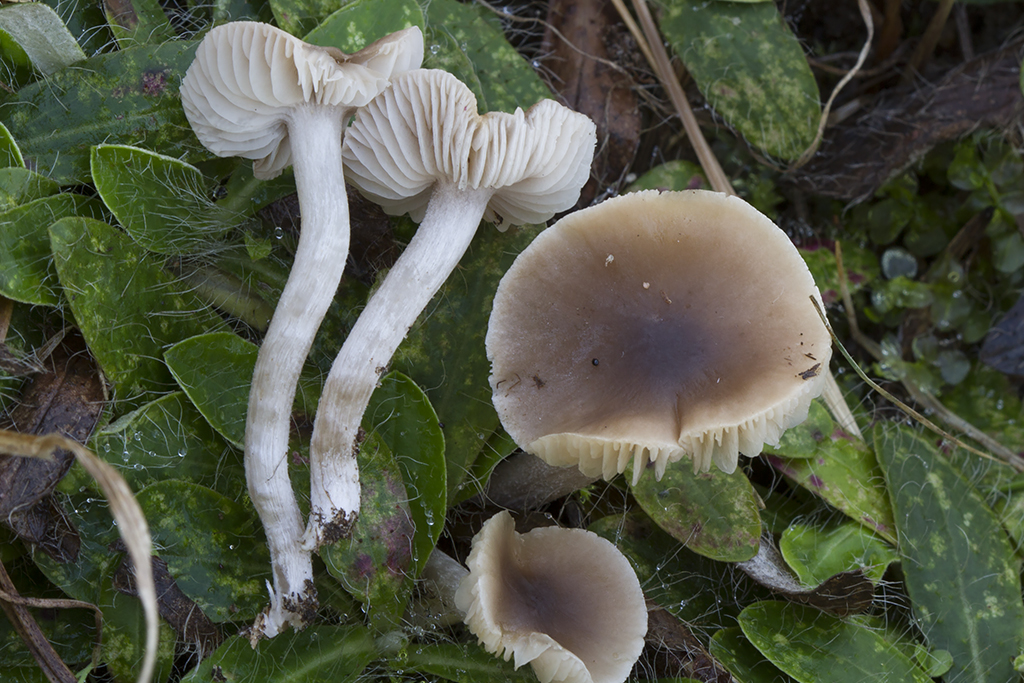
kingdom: Fungi
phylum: Basidiomycota
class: Agaricomycetes
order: Agaricales
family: Tricholomataceae
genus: Dermoloma
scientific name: Dermoloma cuneifolium
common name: eng-nonnehat
